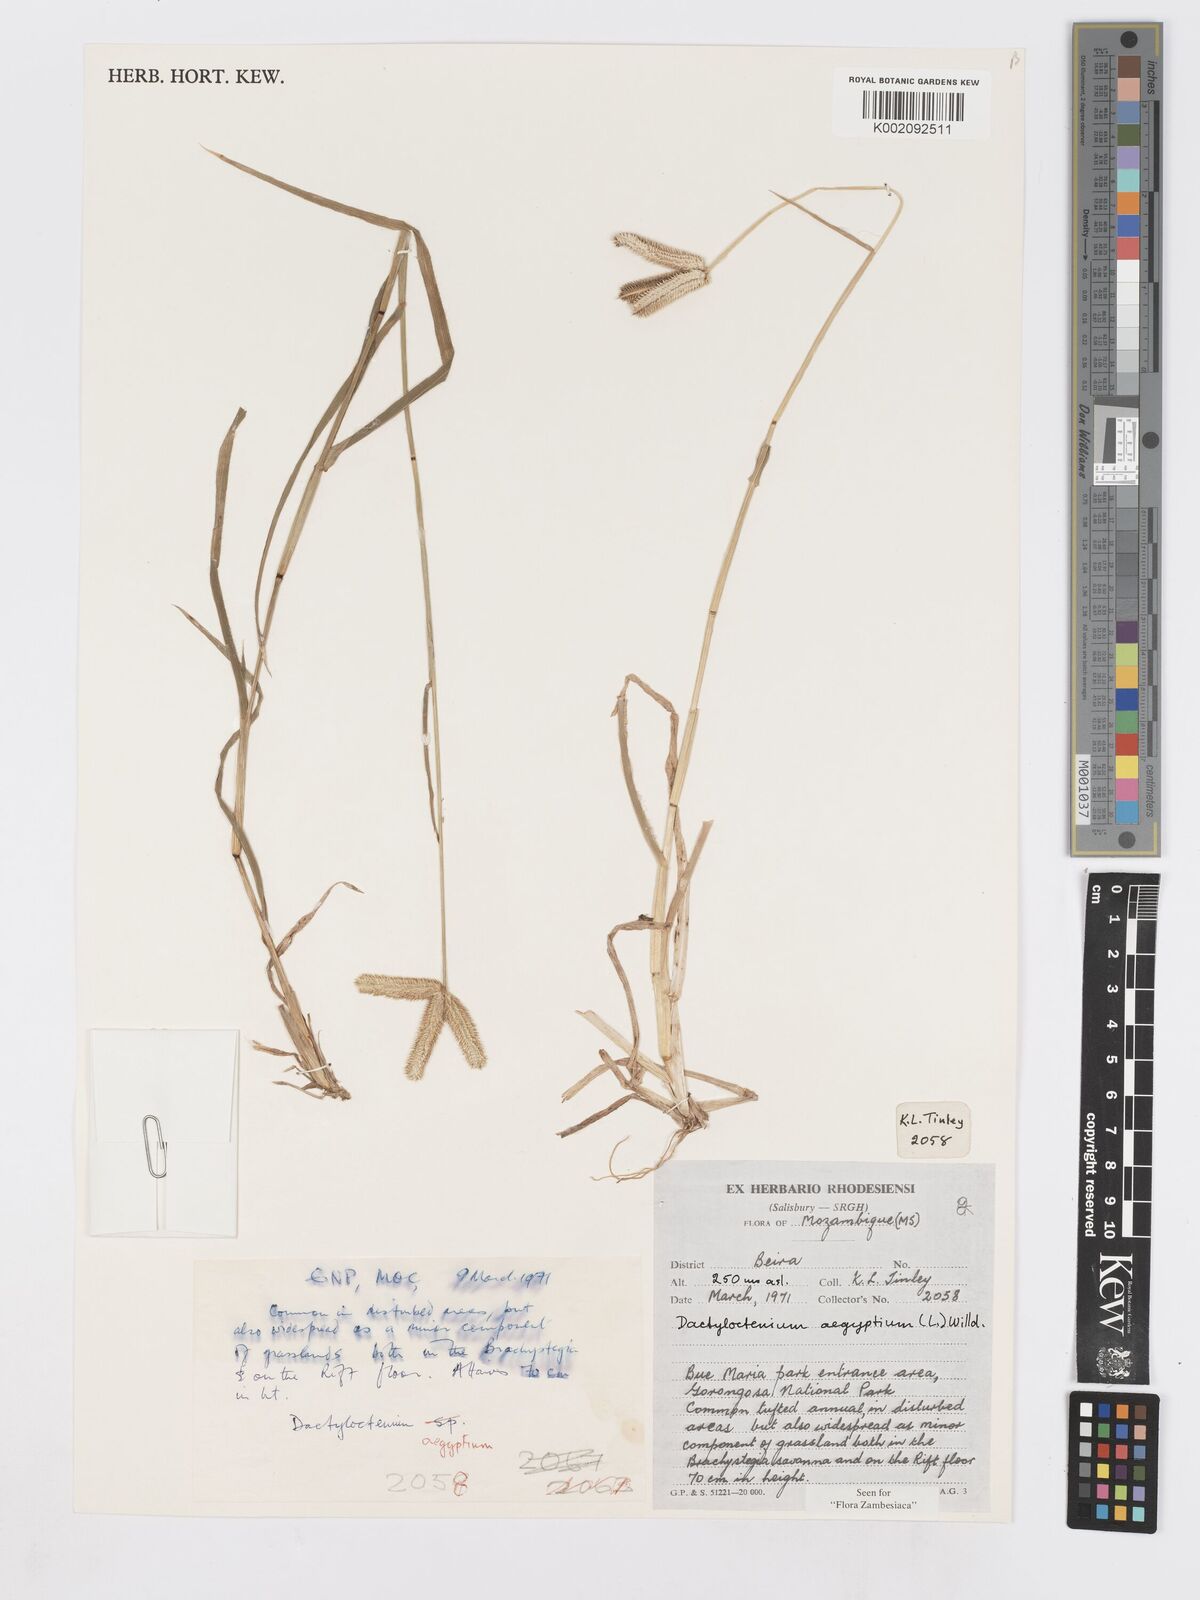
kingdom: Plantae
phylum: Tracheophyta
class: Liliopsida
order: Poales
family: Poaceae
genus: Dactyloctenium
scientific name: Dactyloctenium aegyptium
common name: Egyptian grass
